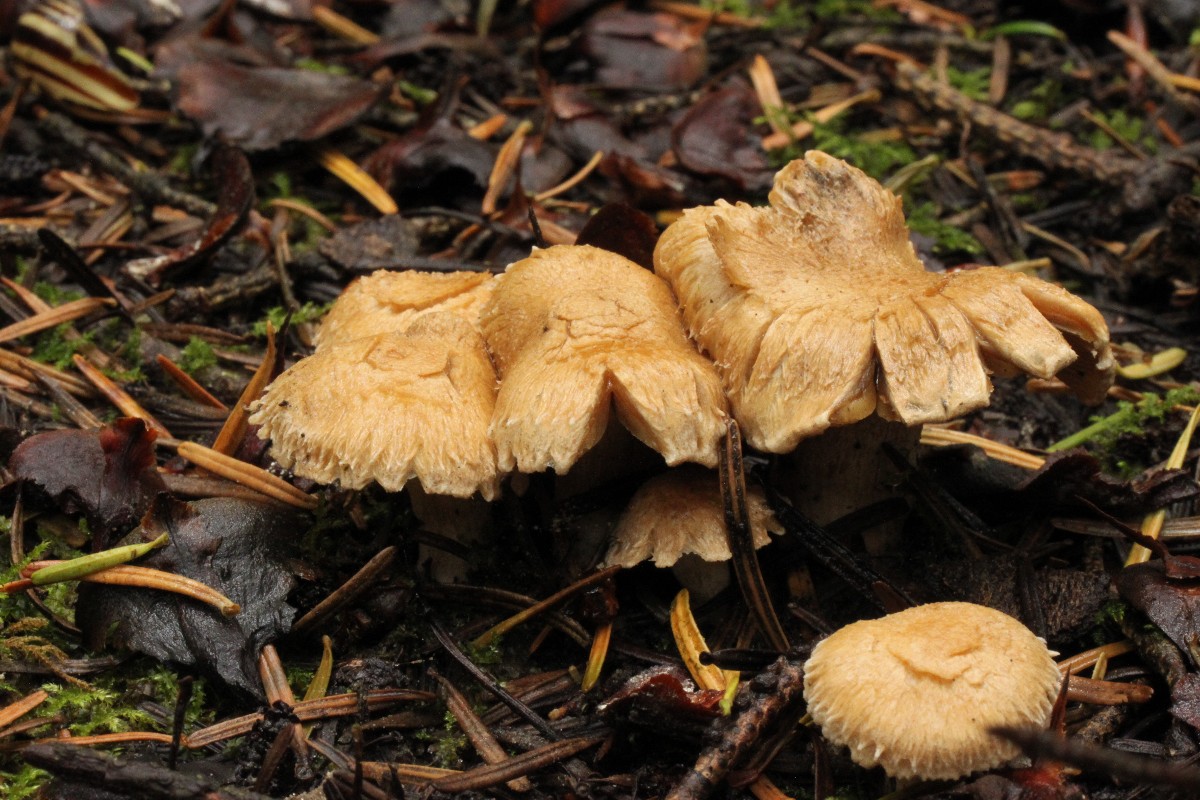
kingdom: Fungi
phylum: Basidiomycota
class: Agaricomycetes
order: Agaricales
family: Inocybaceae
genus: Inocybe
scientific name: Inocybe melanopoda
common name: sortfodet trævlhat
